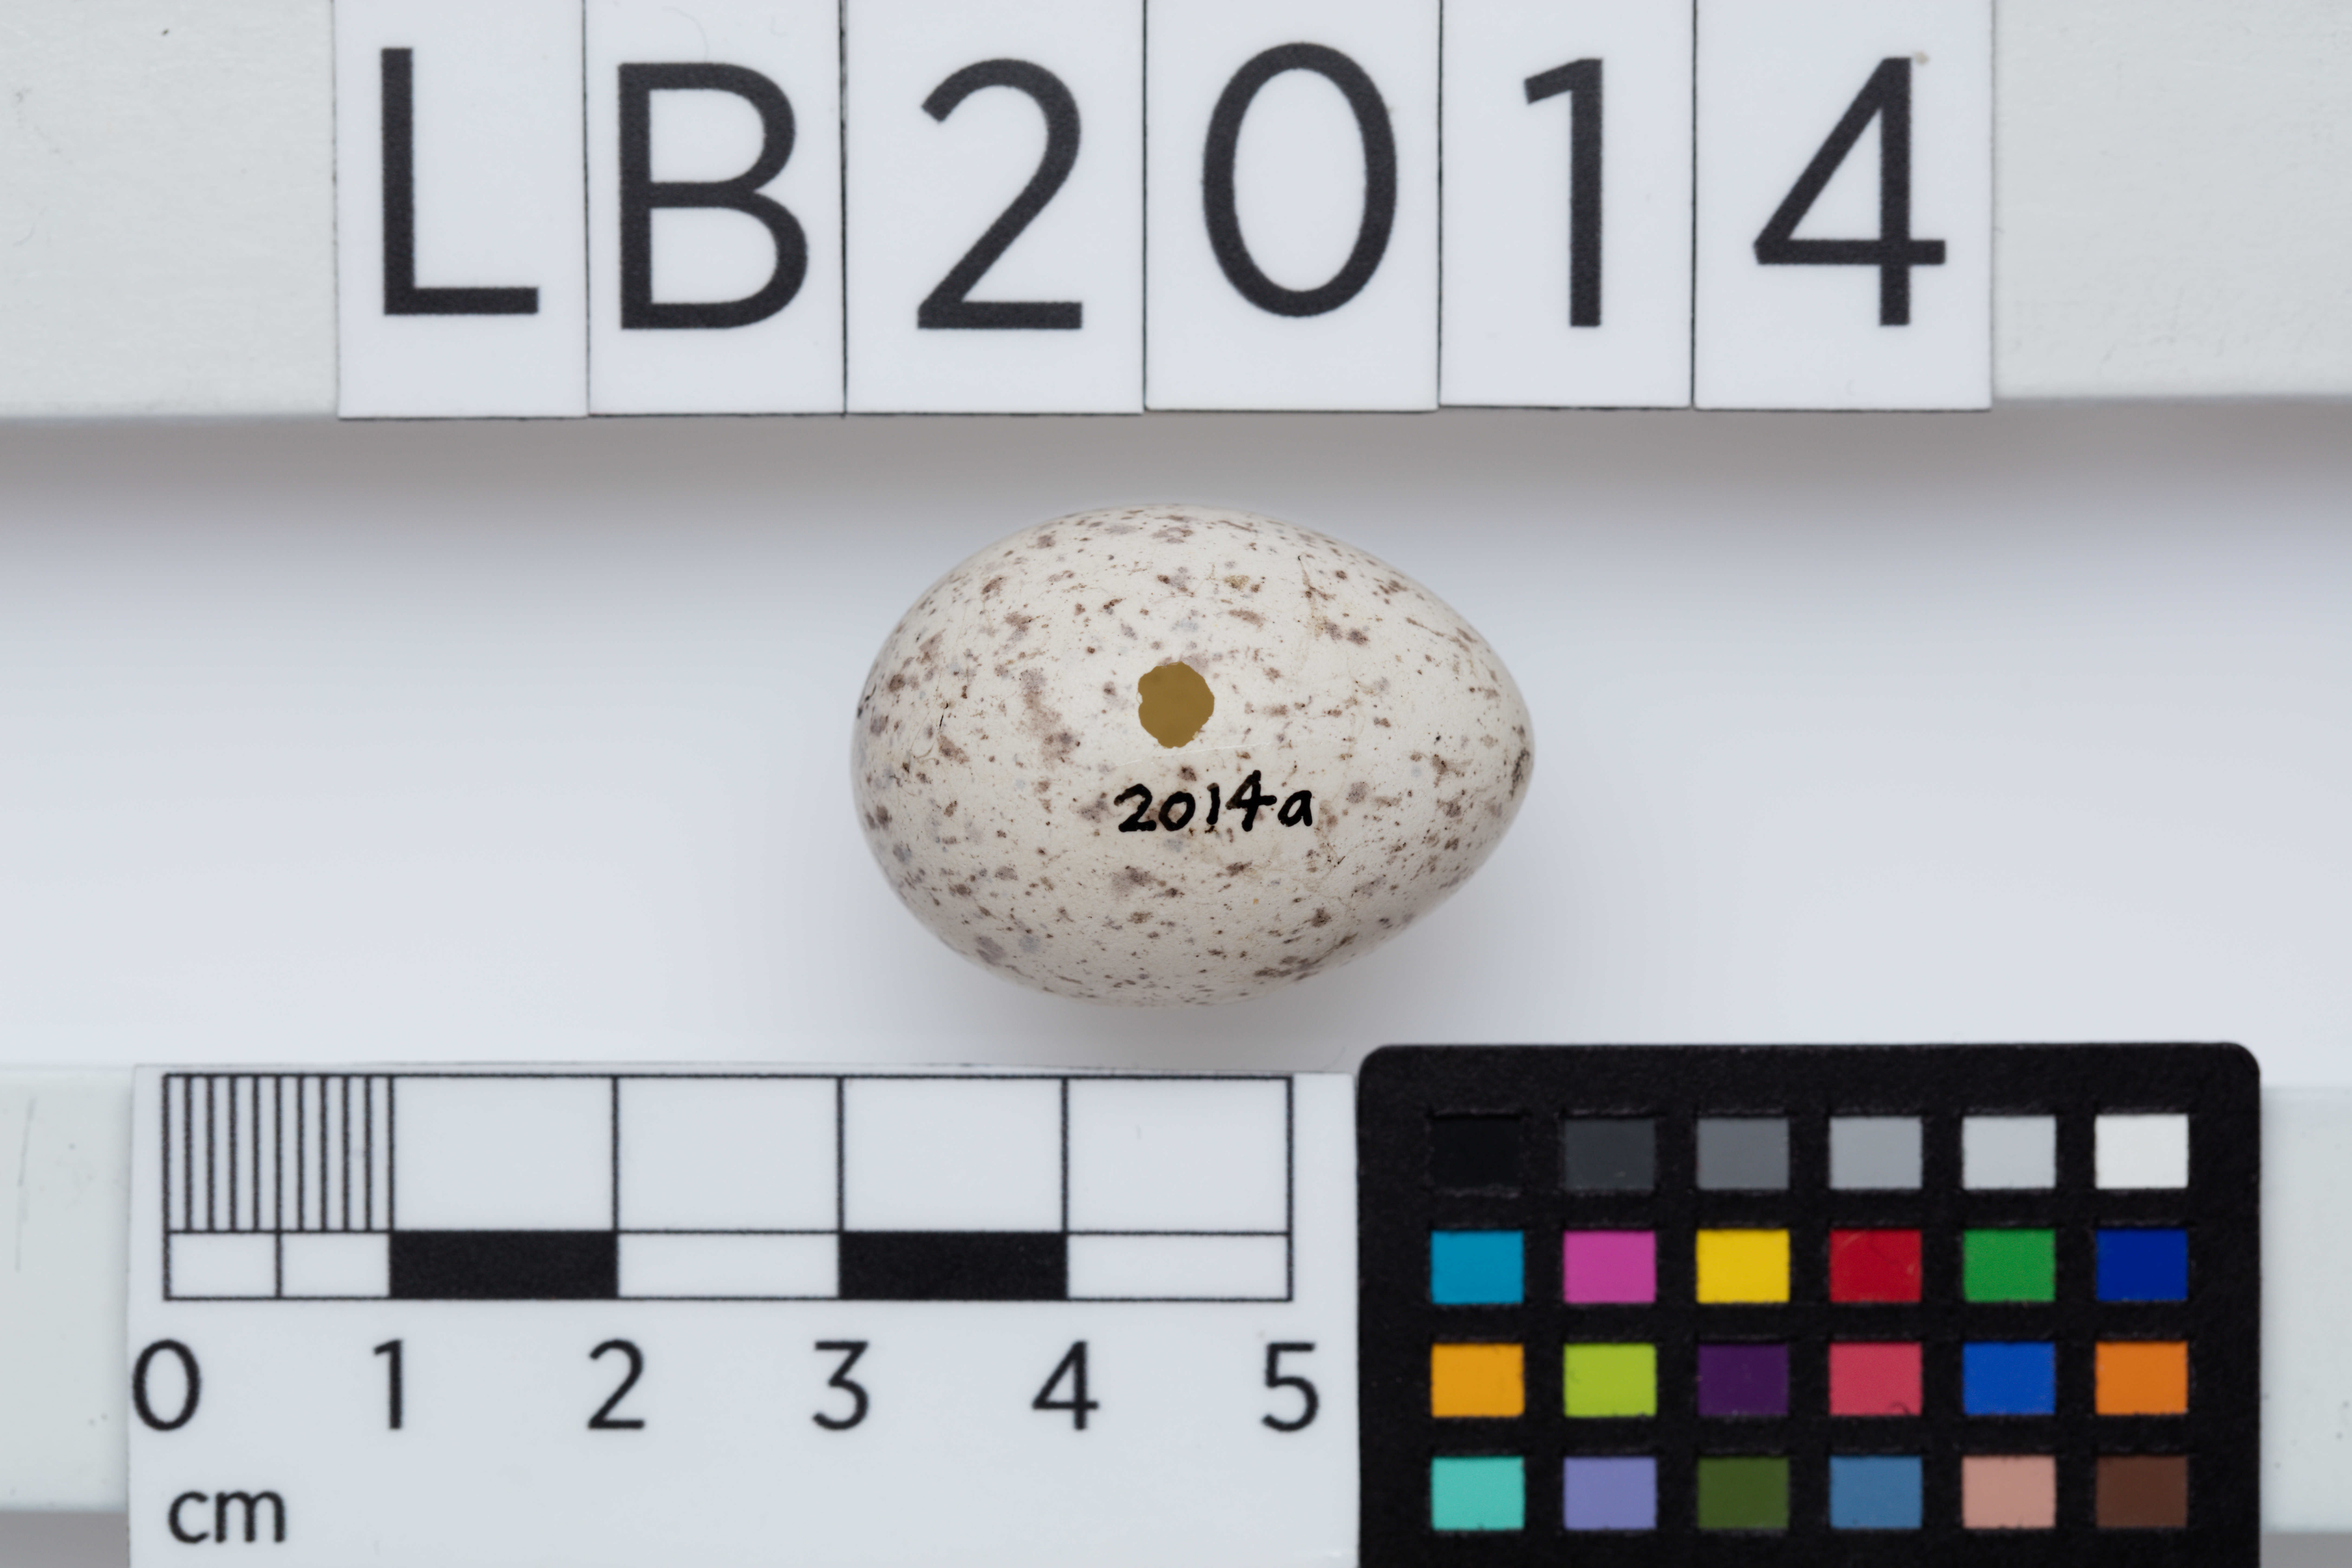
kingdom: Animalia
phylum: Chordata
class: Aves
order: Passeriformes
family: Callaeatidae
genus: Philesturnus
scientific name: Philesturnus carunculatus
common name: South island saddleback
